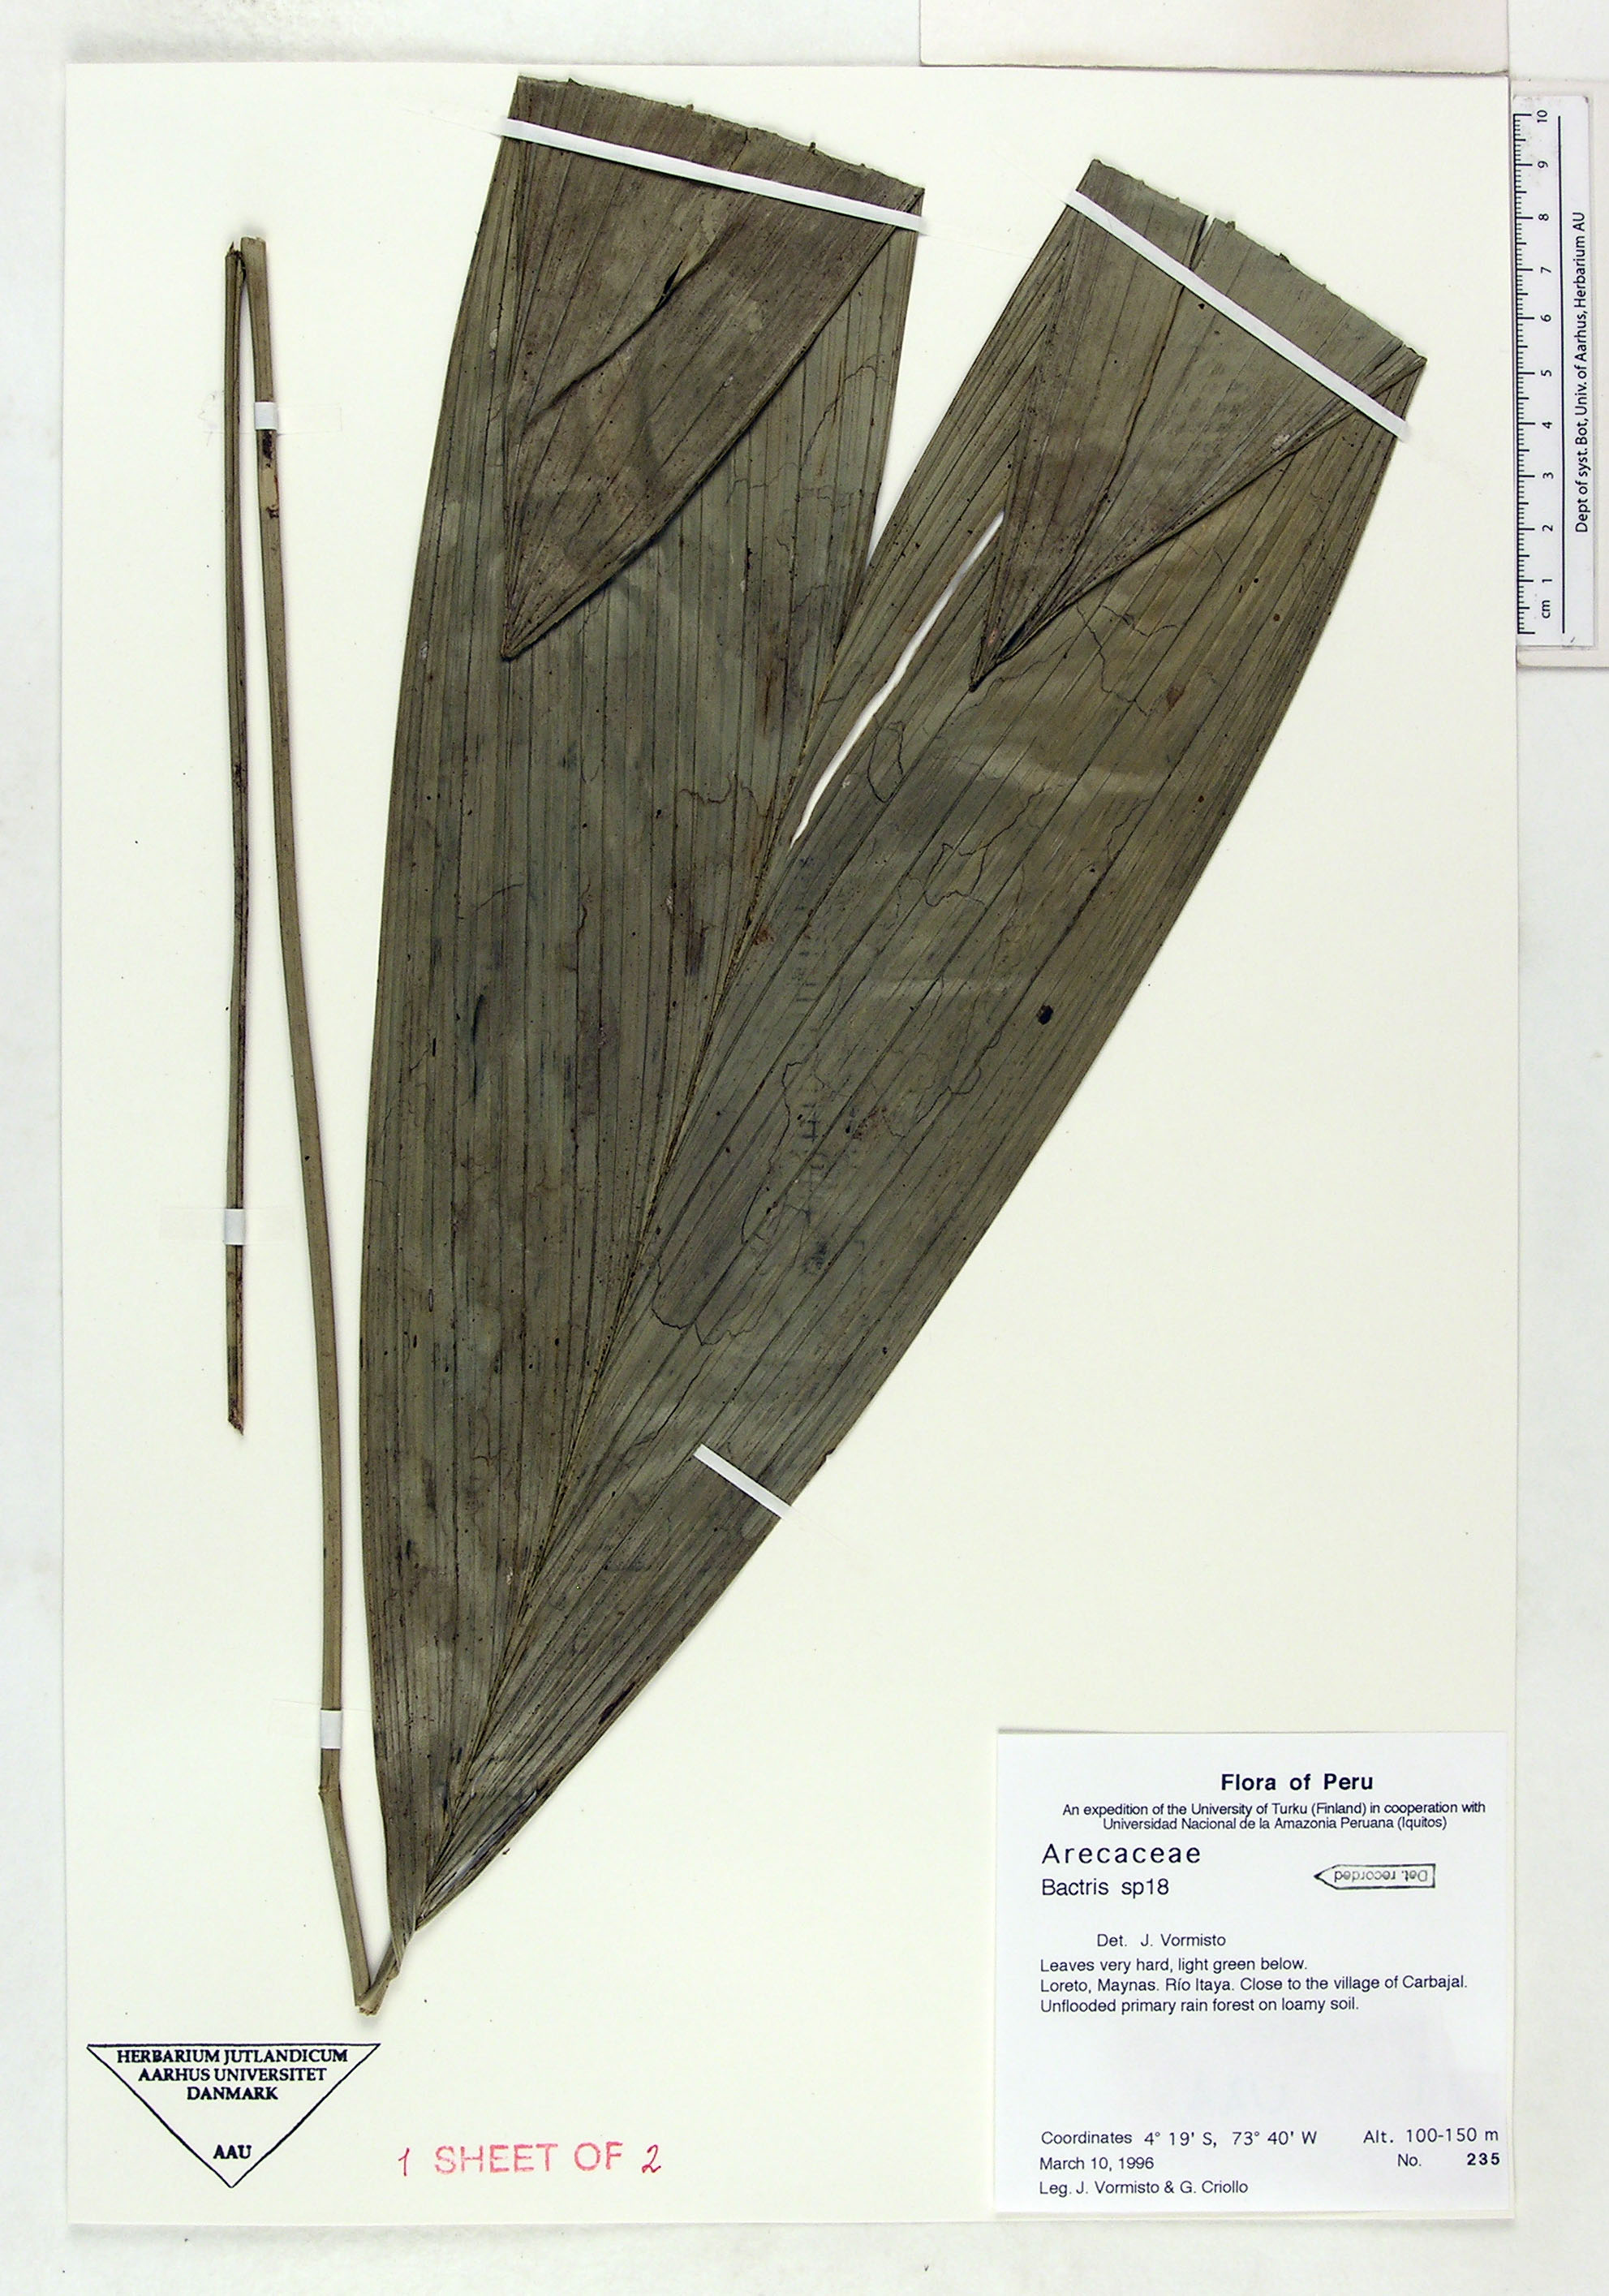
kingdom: Plantae
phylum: Tracheophyta
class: Liliopsida
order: Arecales
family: Arecaceae
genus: Bactris
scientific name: Bactris
